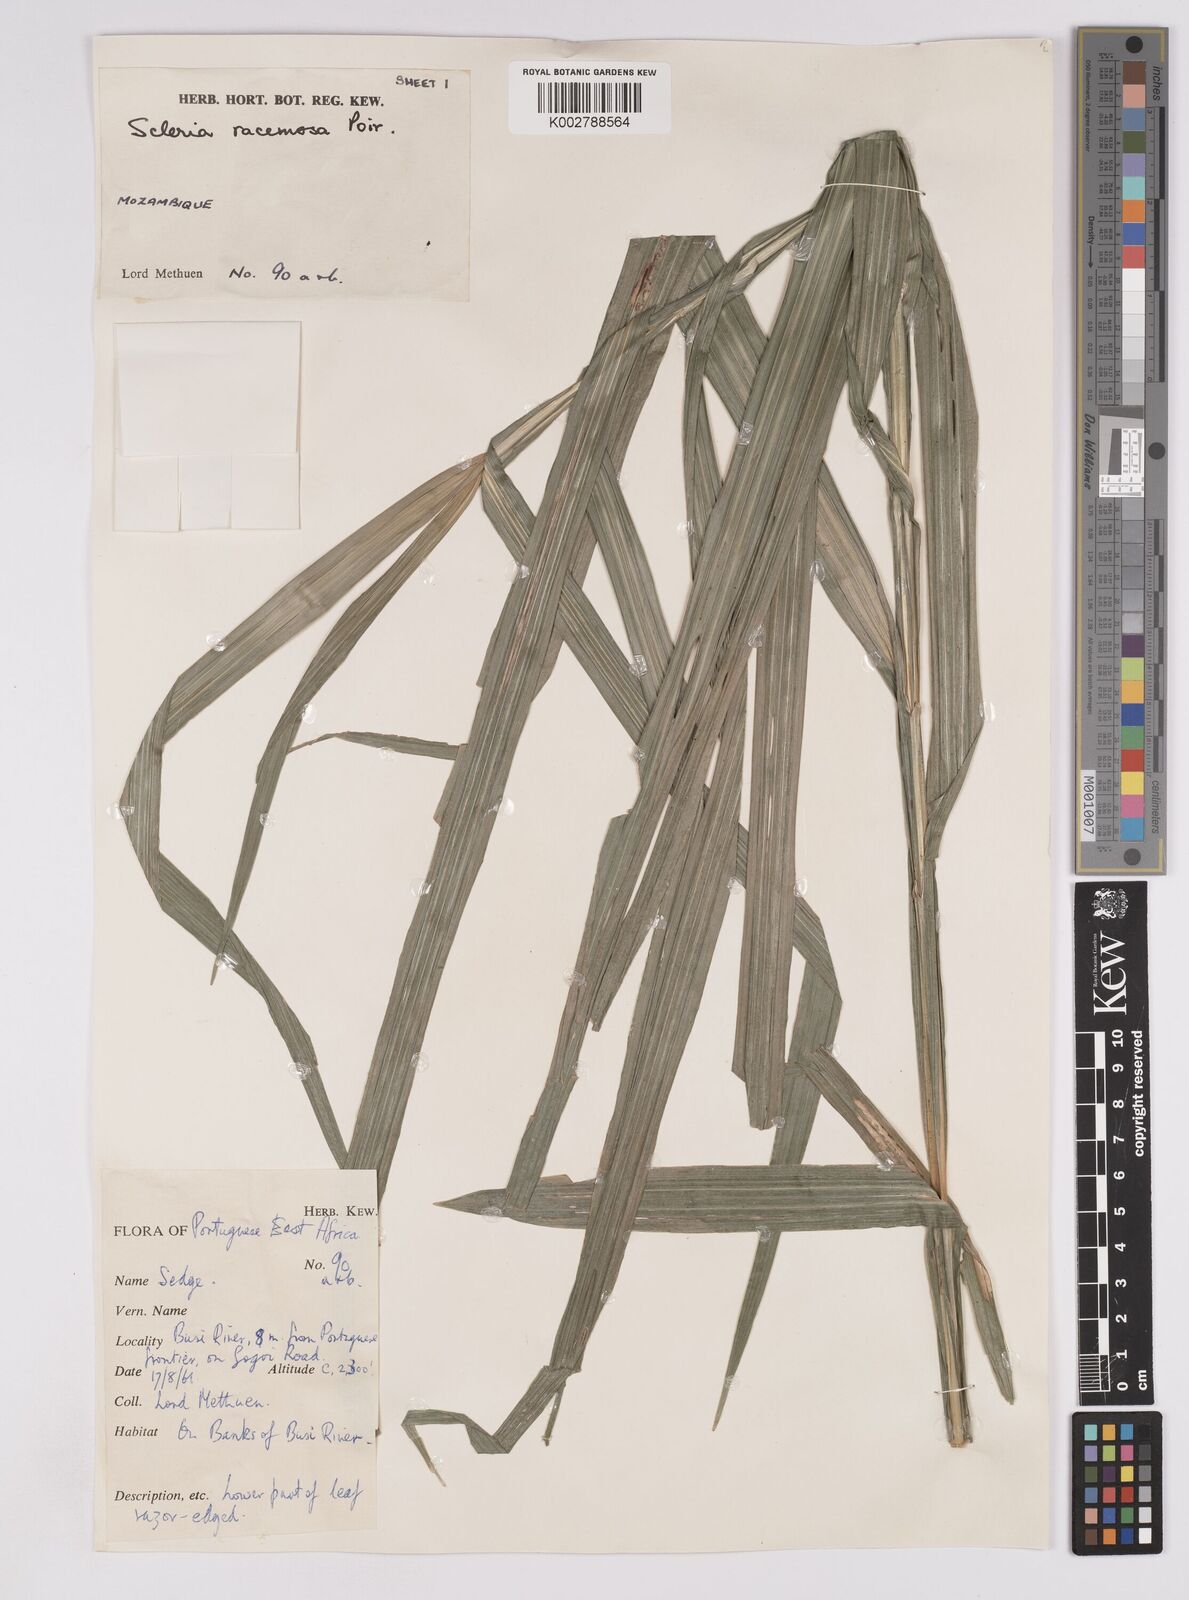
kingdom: Plantae
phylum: Tracheophyta
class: Liliopsida
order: Poales
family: Cyperaceae
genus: Scleria
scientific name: Scleria racemosa
